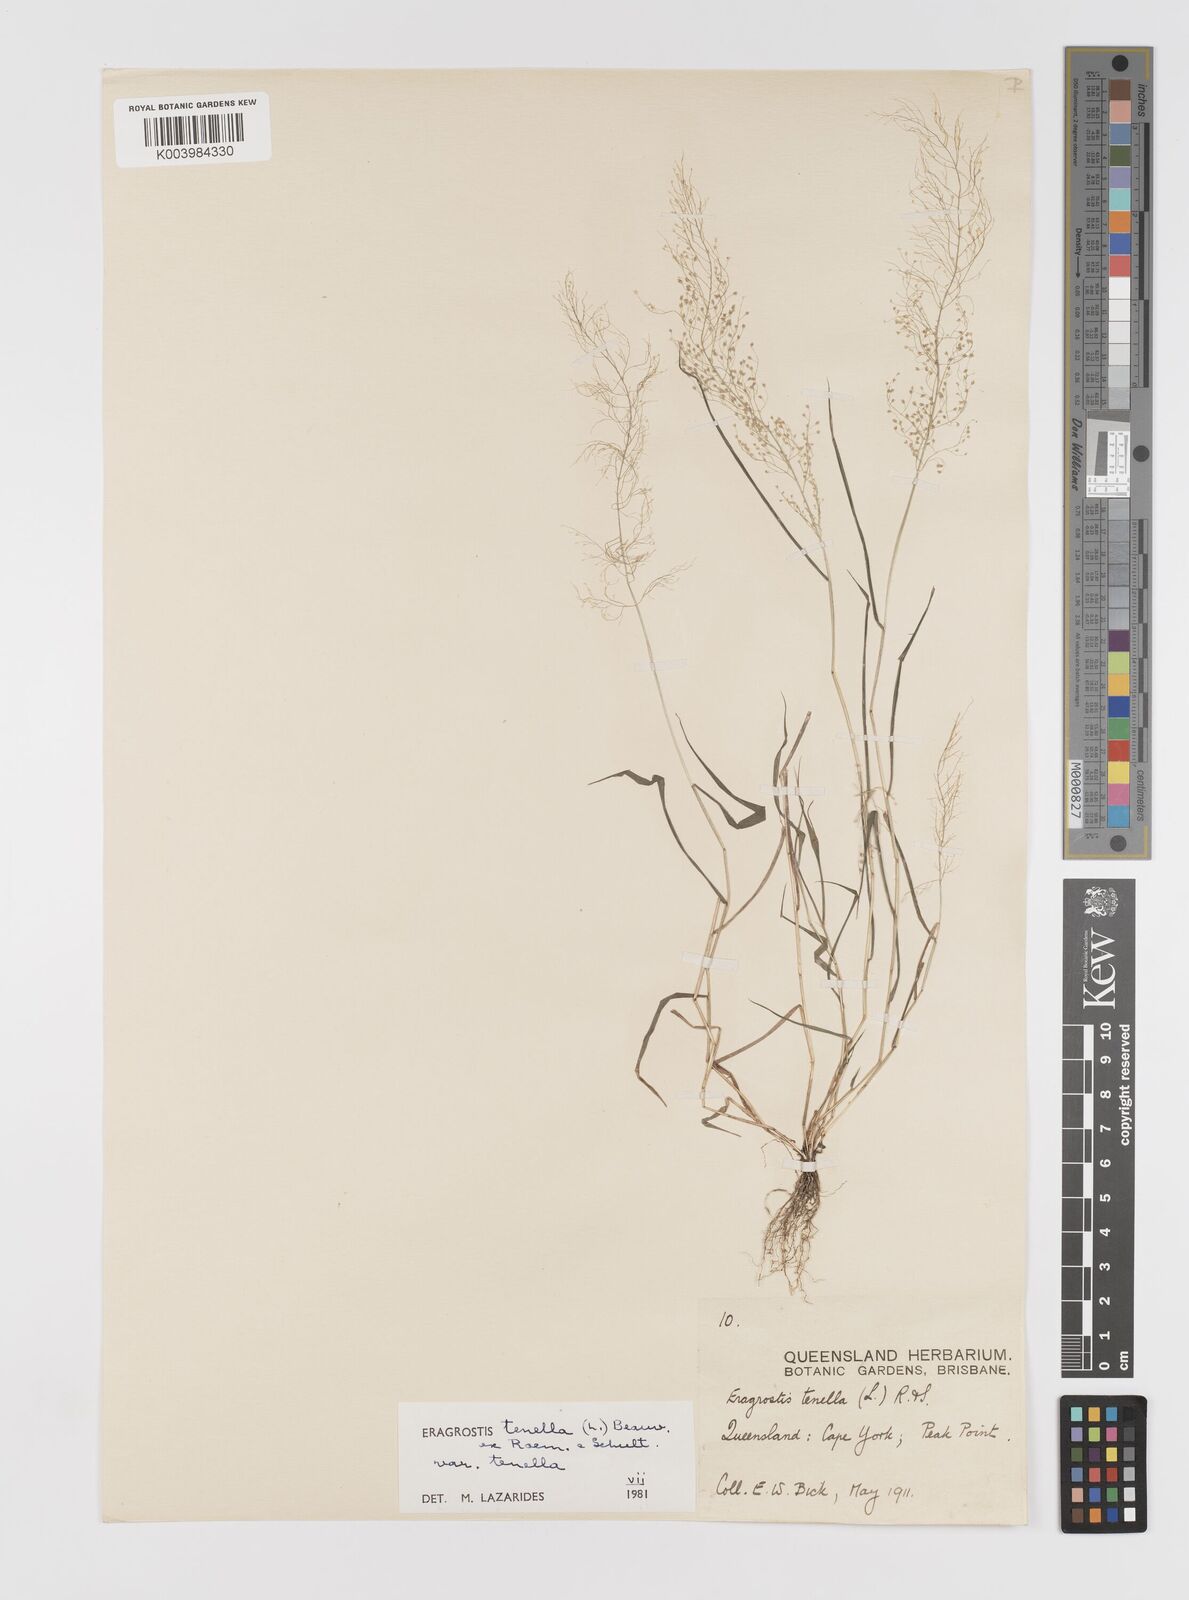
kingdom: Plantae
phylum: Tracheophyta
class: Liliopsida
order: Poales
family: Poaceae
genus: Eragrostis
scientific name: Eragrostis tenella
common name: Japanese lovegrass
